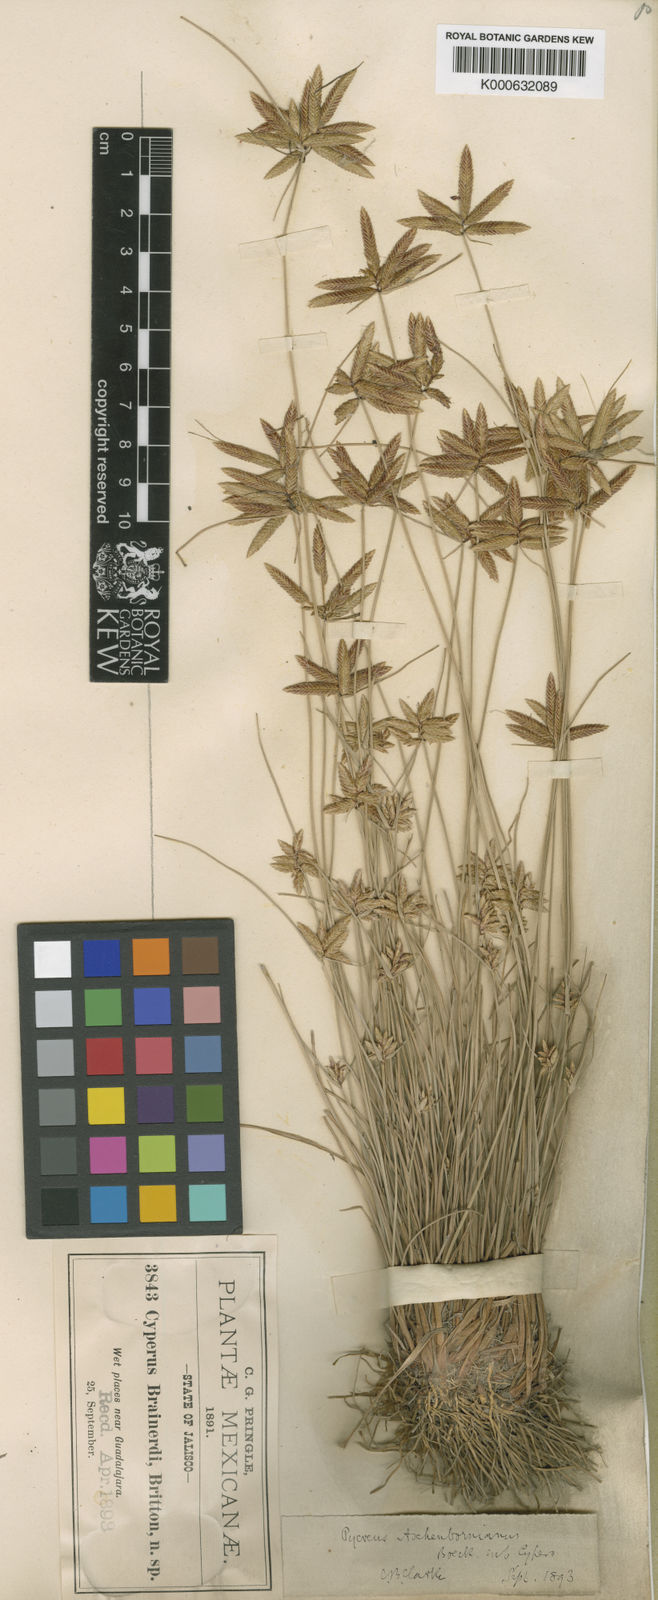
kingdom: Plantae
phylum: Tracheophyta
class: Liliopsida
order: Poales
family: Cyperaceae
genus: Cyperus
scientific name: Cyperus aschenbornianus
